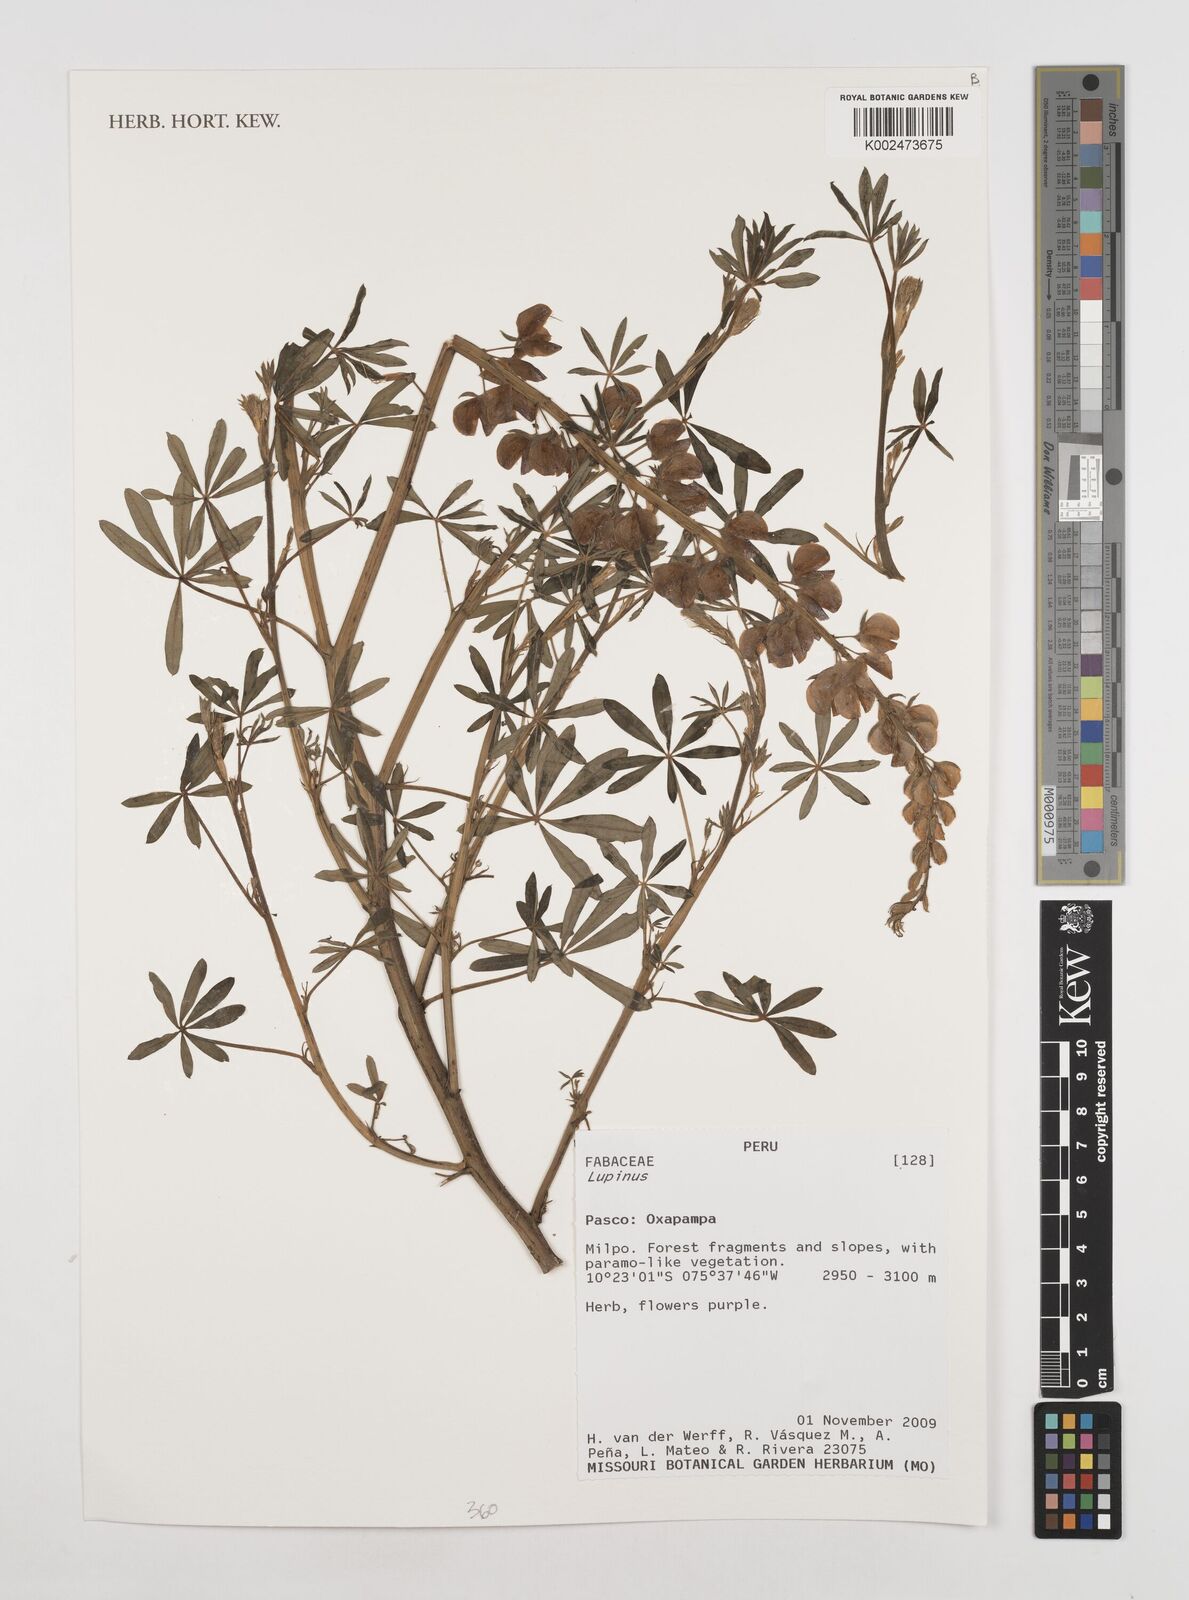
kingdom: Plantae
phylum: Tracheophyta
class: Magnoliopsida
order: Fabales
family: Fabaceae
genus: Lupinus
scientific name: Lupinus
